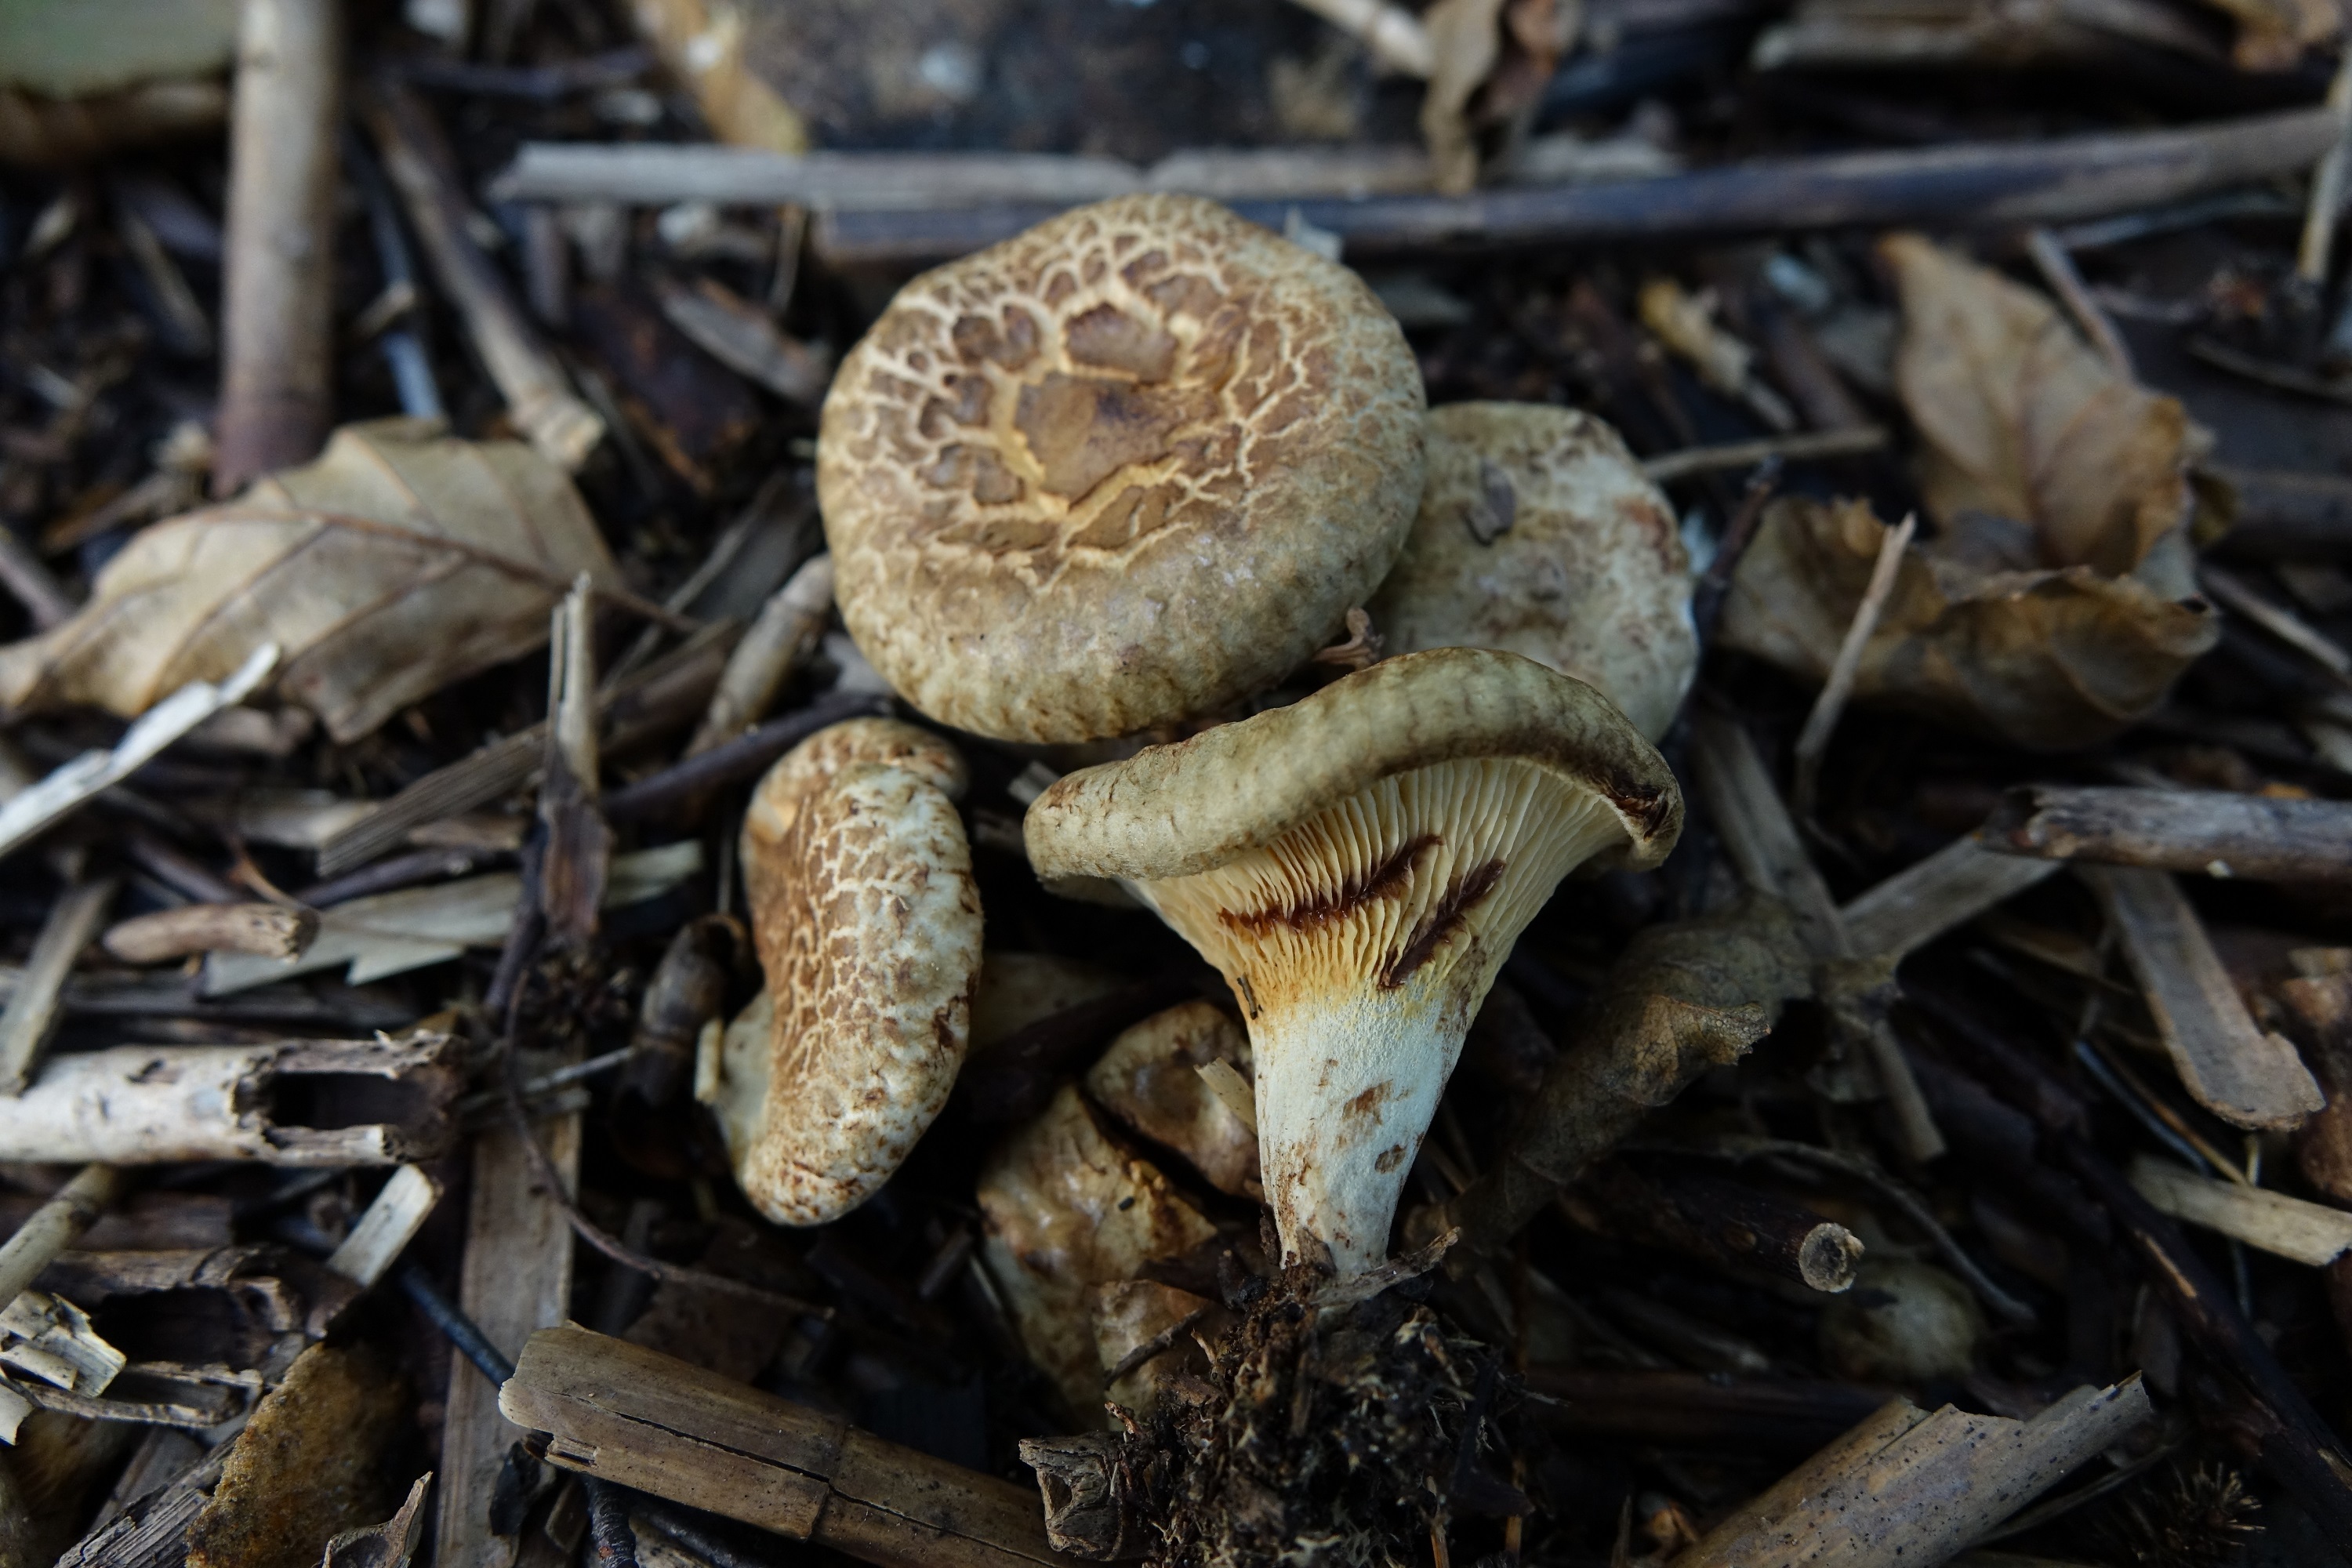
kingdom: Fungi
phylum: Basidiomycota
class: Agaricomycetes
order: Boletales
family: Paxillaceae
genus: Paxillus
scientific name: Paxillus rubicundulus
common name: Alder rollrim
